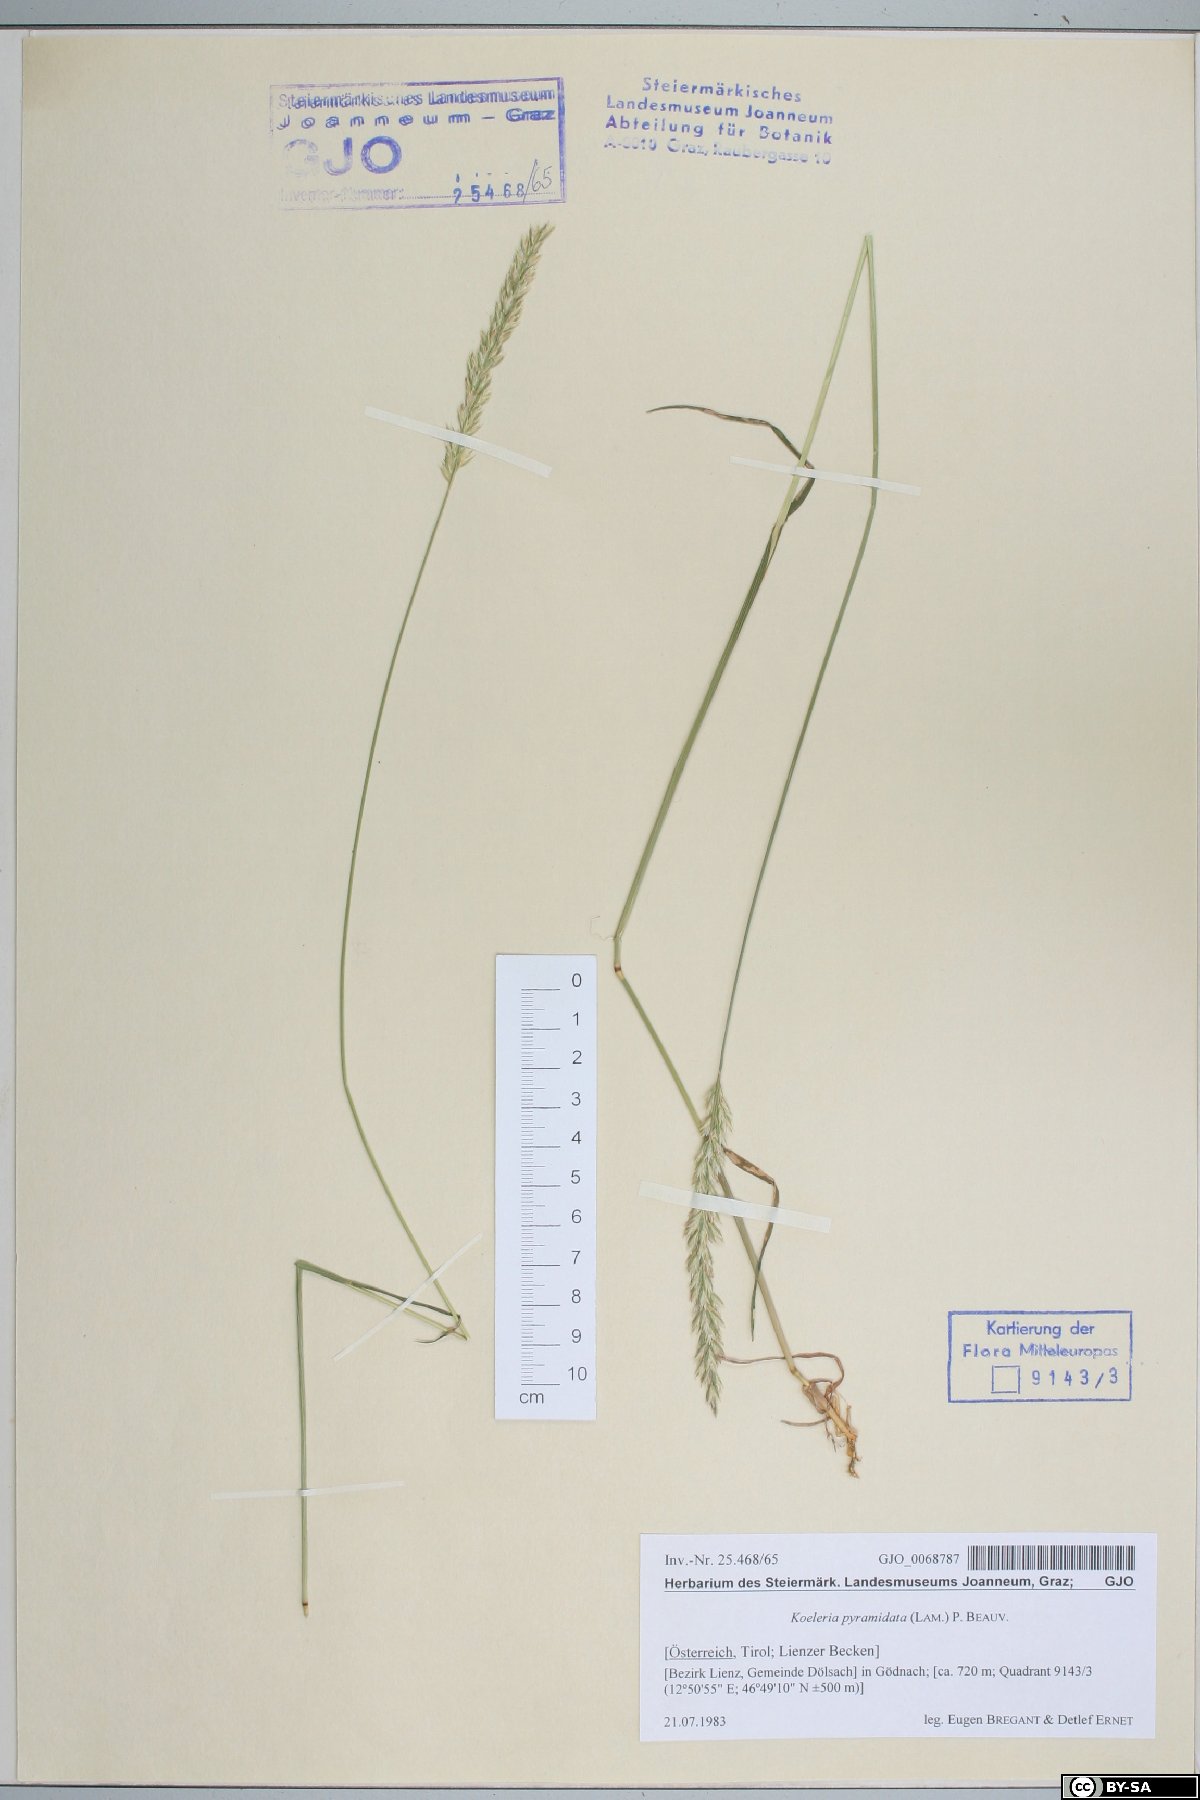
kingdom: Plantae
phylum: Tracheophyta
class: Liliopsida
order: Poales
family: Poaceae
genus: Koeleria
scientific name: Koeleria pyramidata
